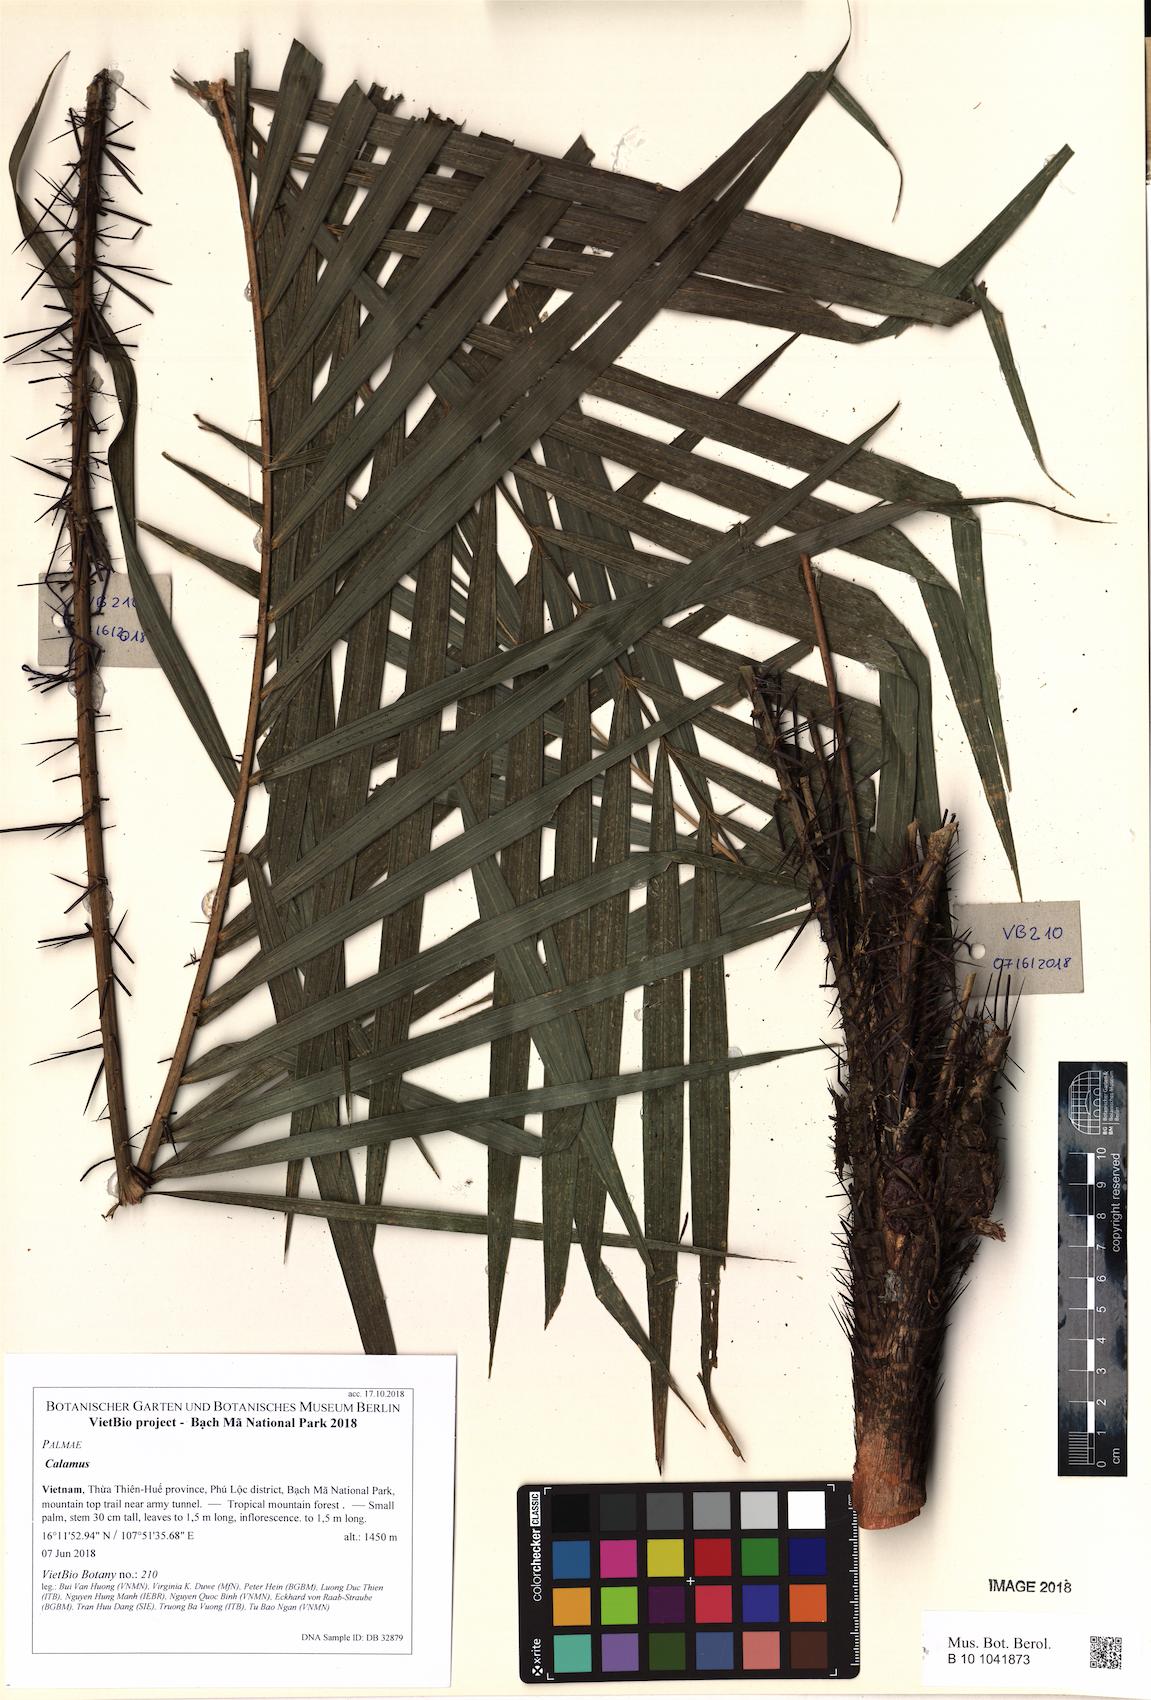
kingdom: Plantae
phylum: Tracheophyta
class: Liliopsida
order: Arecales
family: Arecaceae
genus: Calamus
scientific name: Calamus modestus
